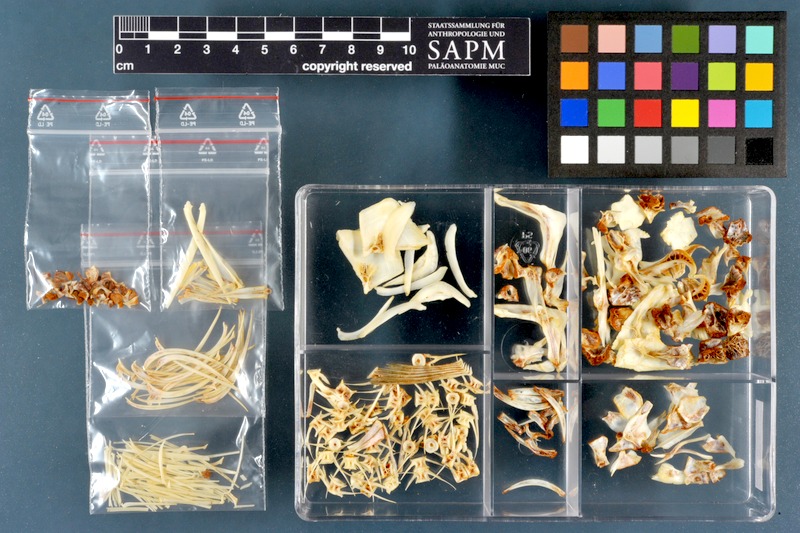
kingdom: Animalia
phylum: Chordata
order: Cypriniformes
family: Cyprinidae
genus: Arabibarbus
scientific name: Arabibarbus grypus
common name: Shabout
